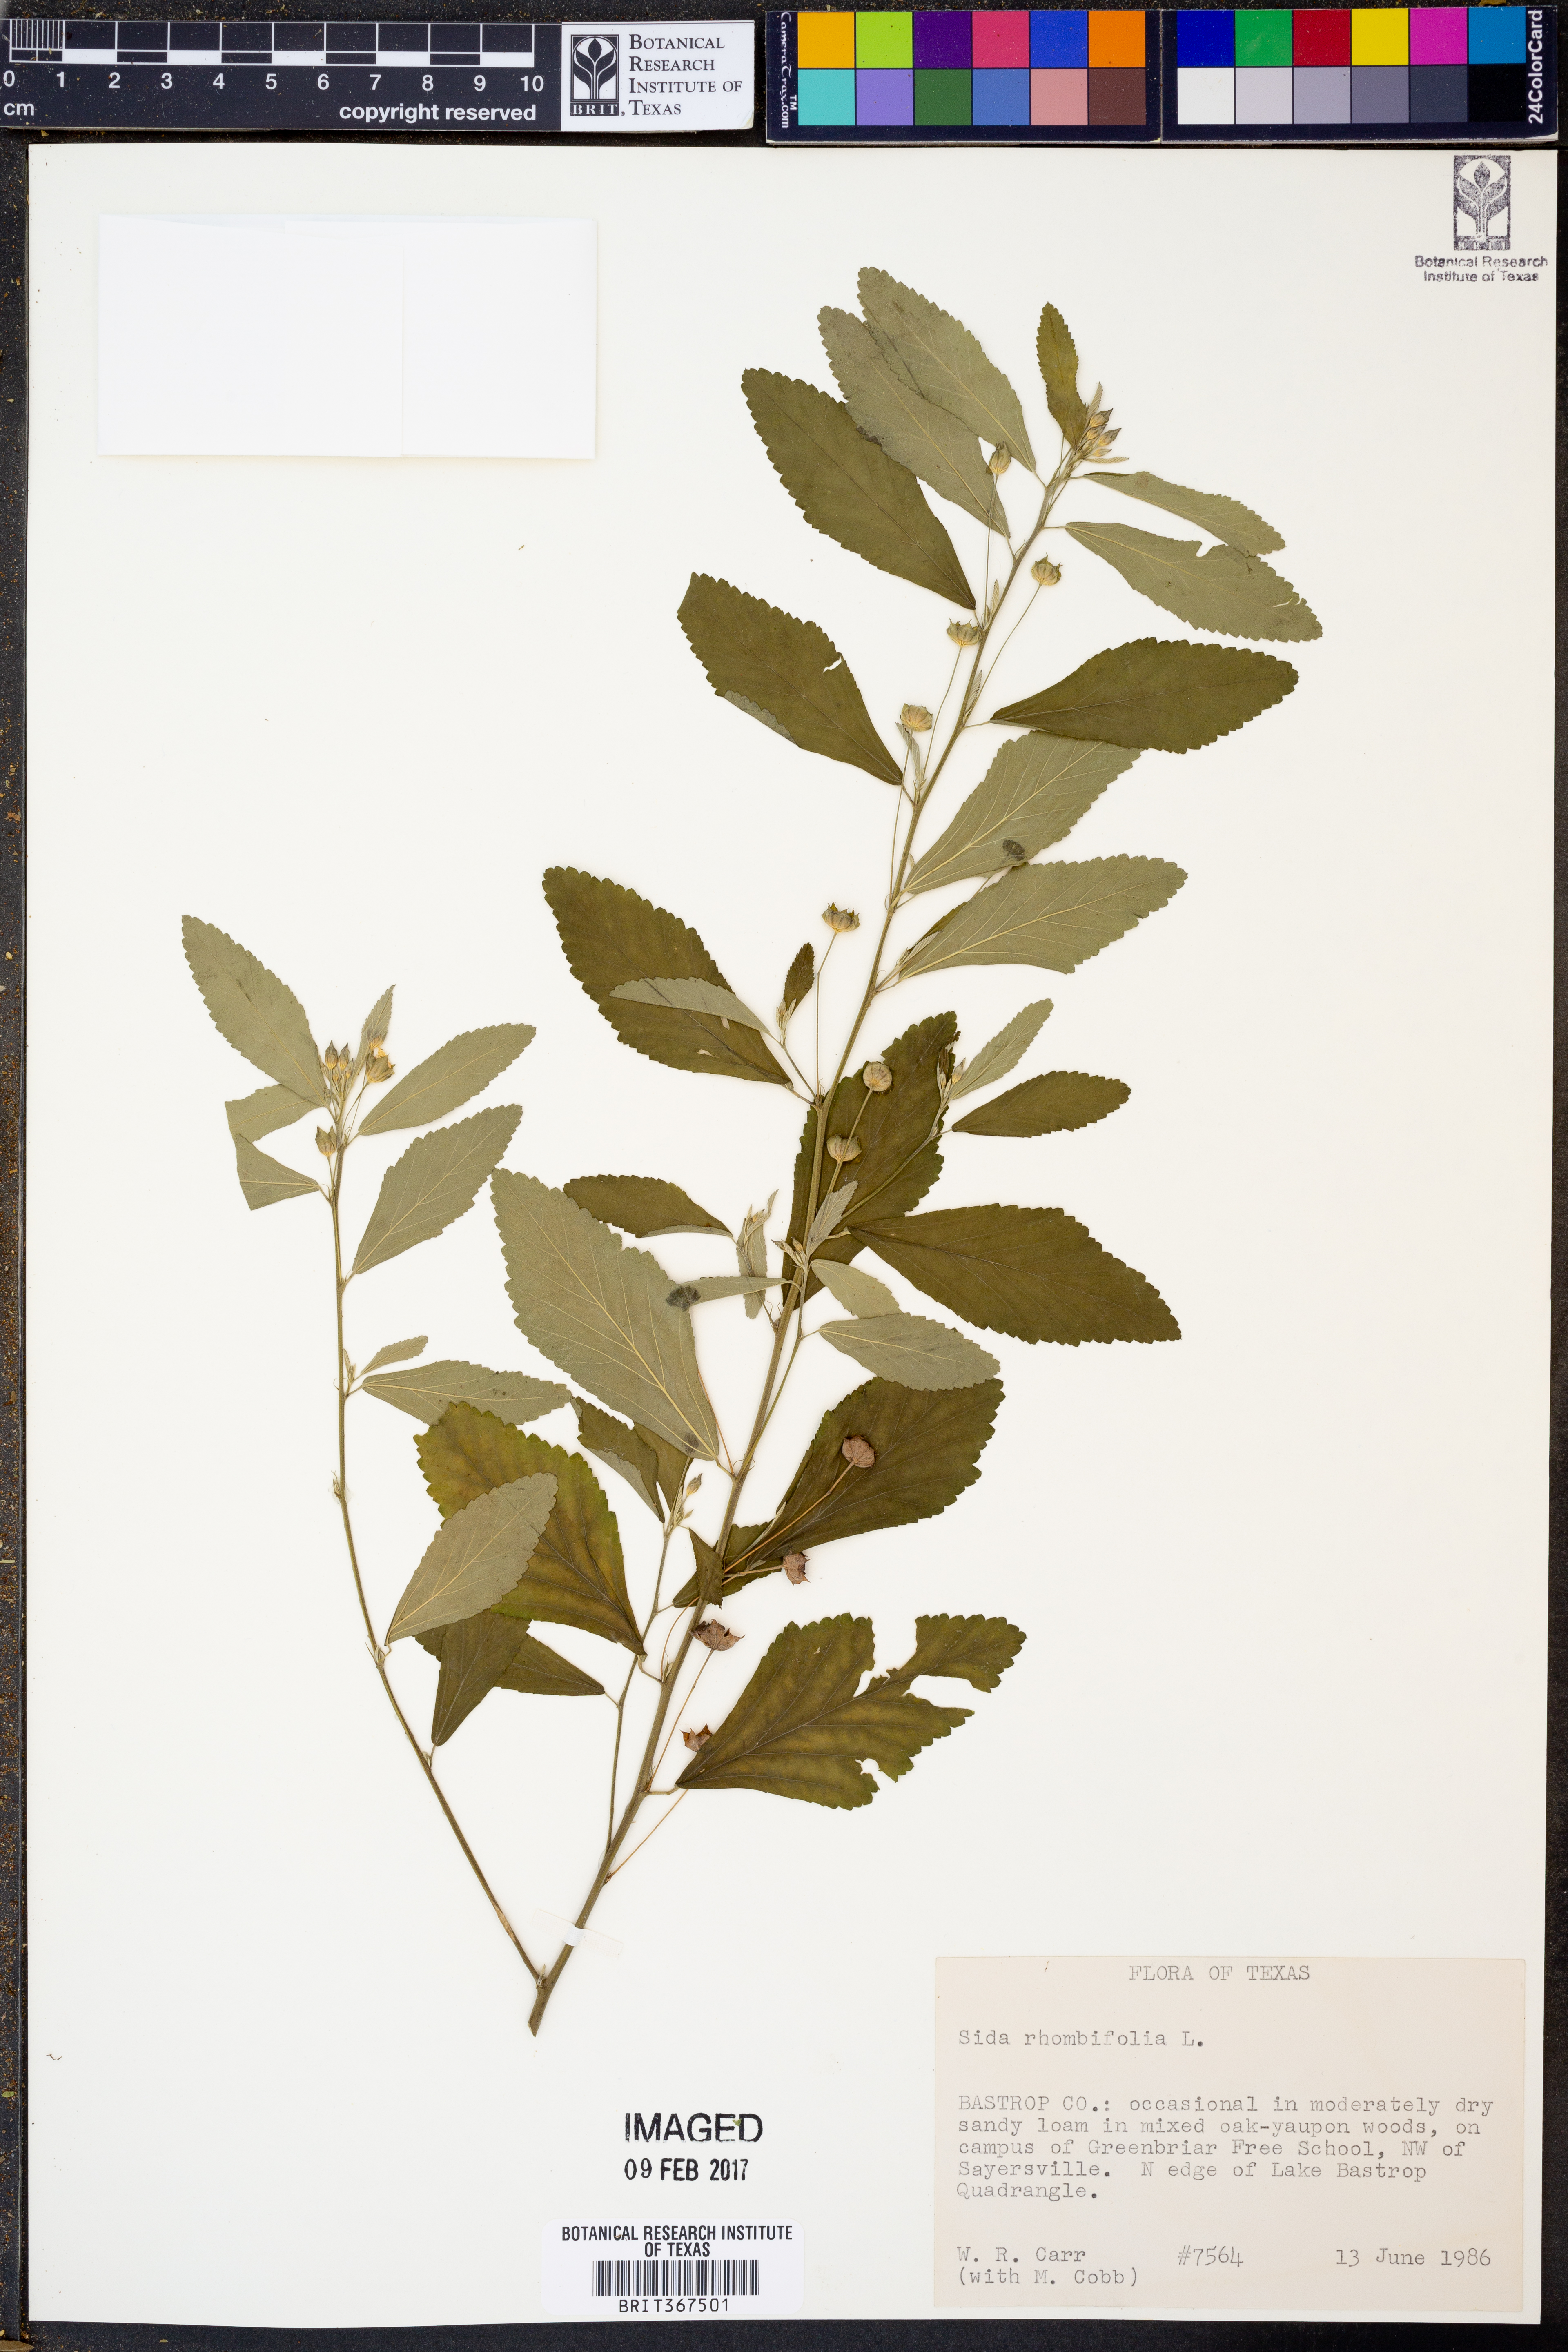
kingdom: Plantae
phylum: Tracheophyta
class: Magnoliopsida
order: Malvales
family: Malvaceae
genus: Sida
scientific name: Sida rhombifolia
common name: Queensland-hemp
